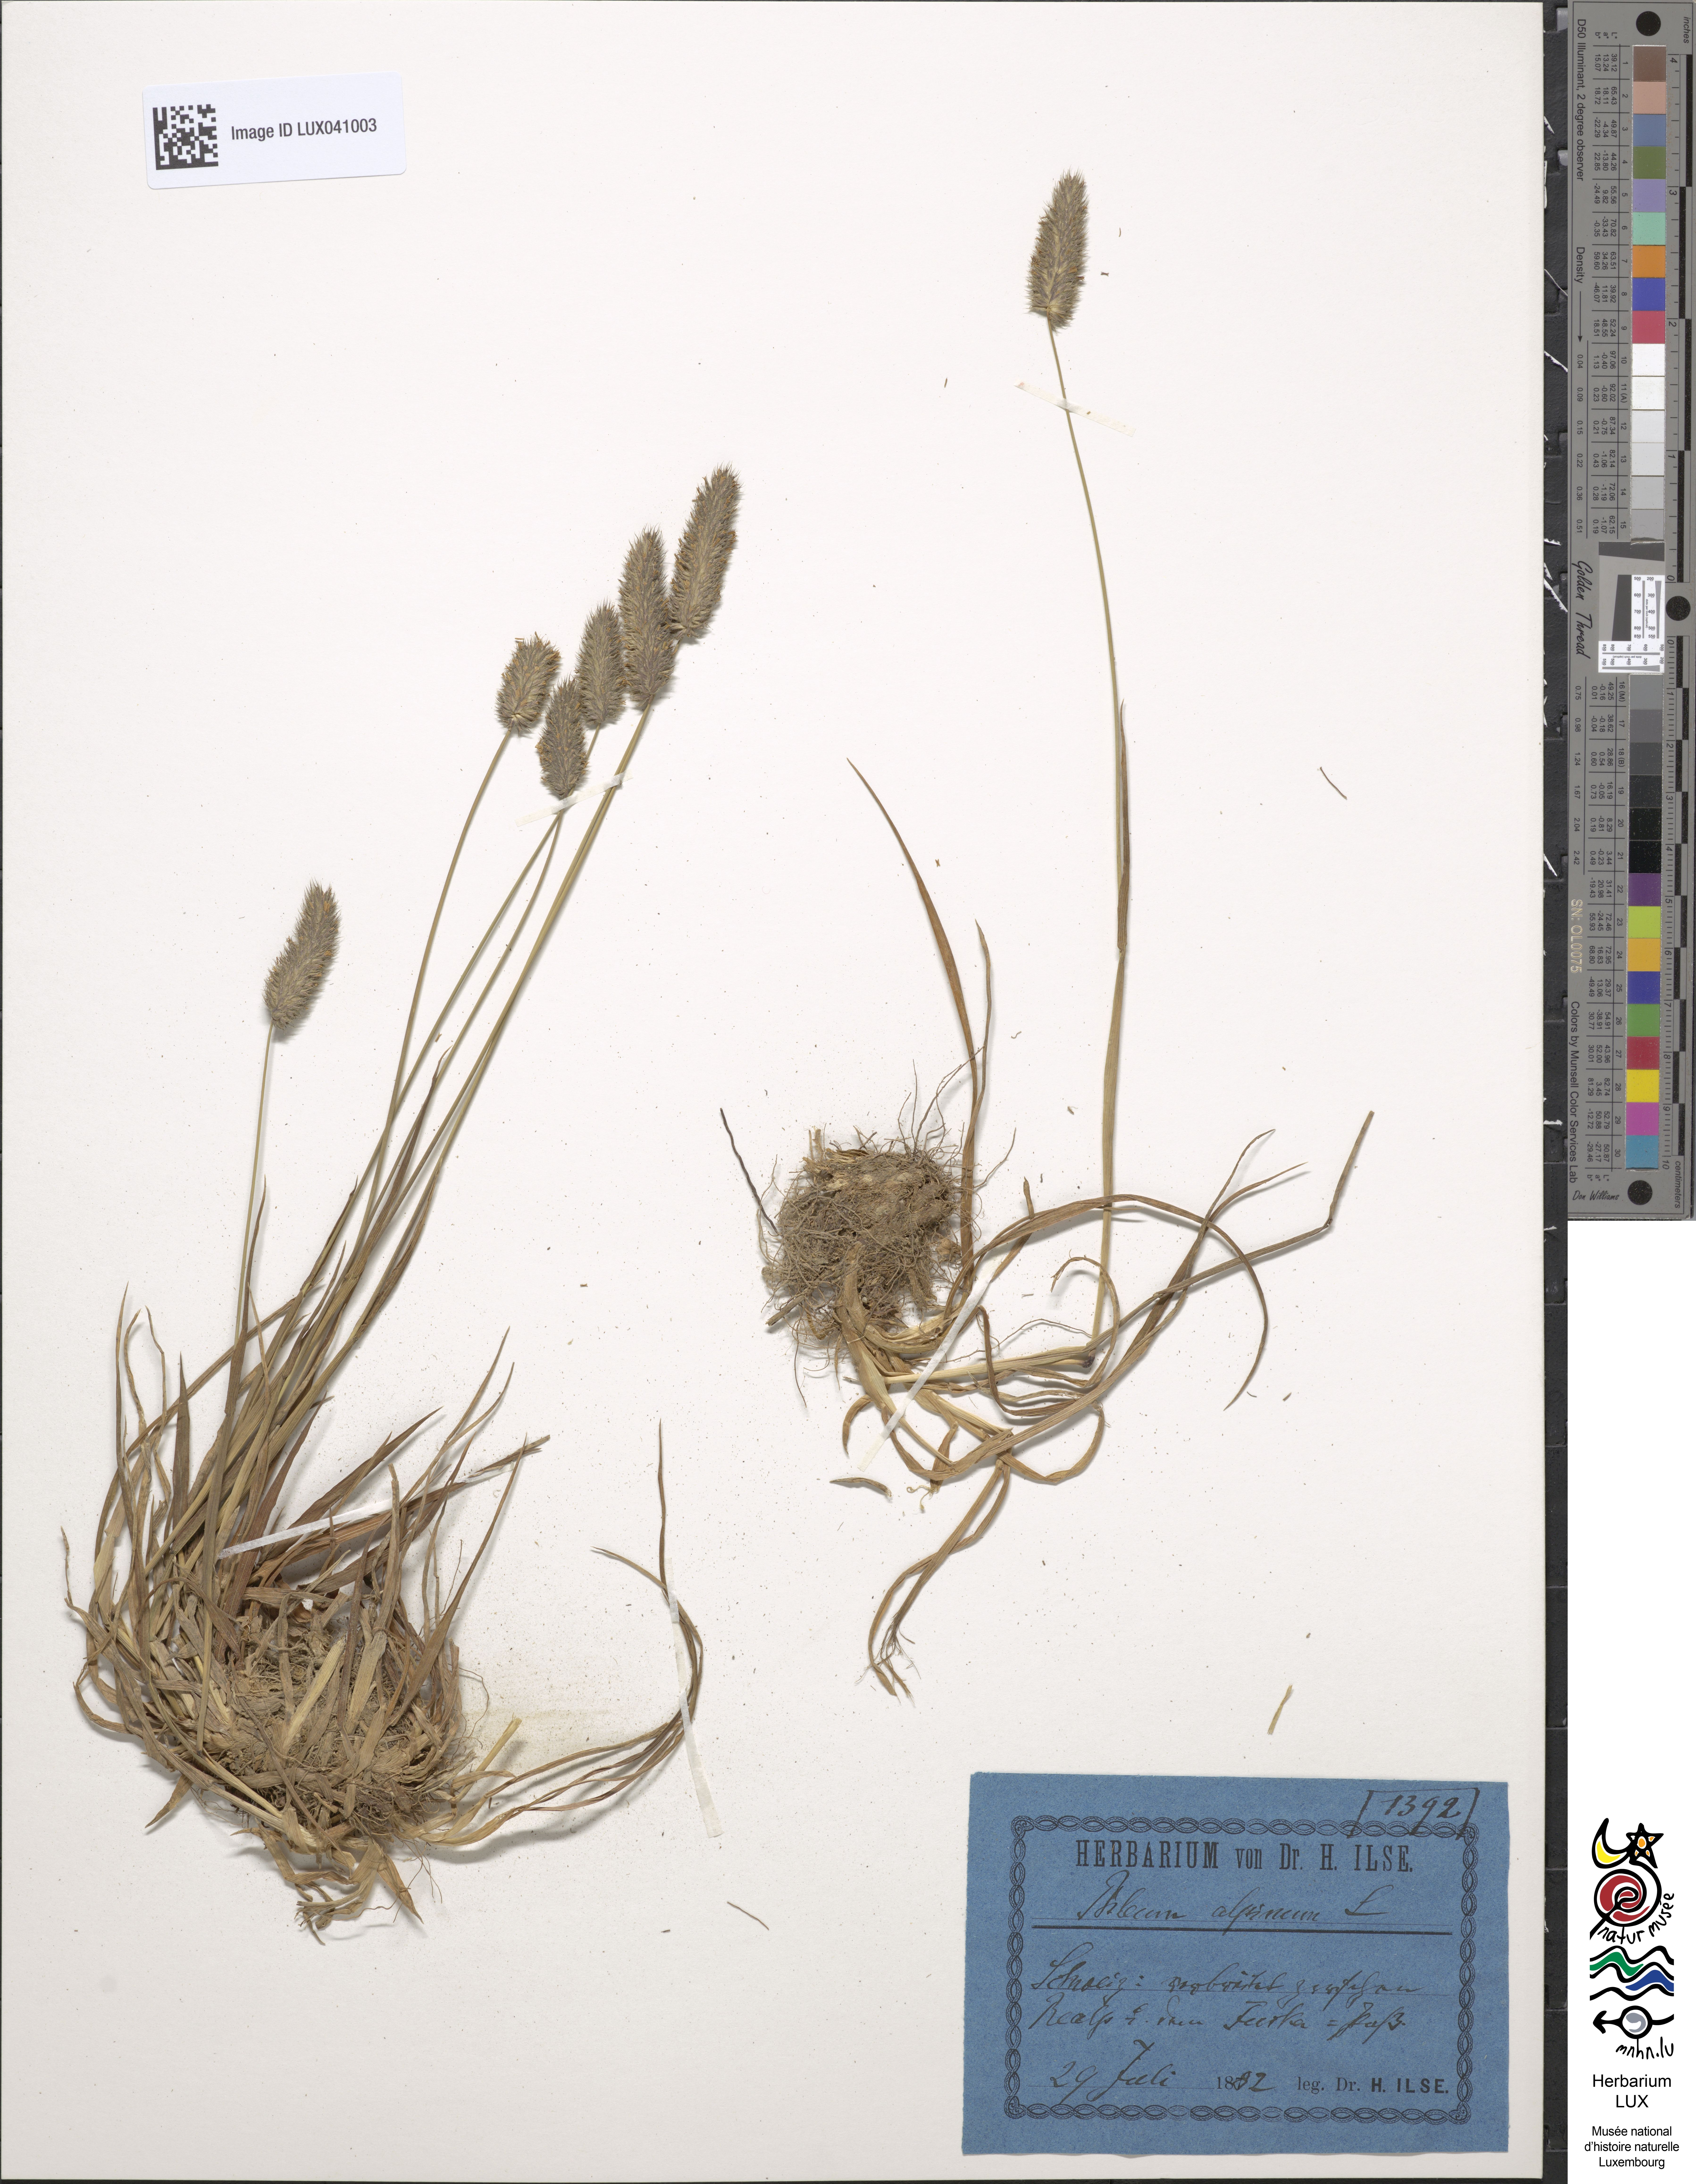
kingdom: Plantae
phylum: Tracheophyta
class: Liliopsida
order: Poales
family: Poaceae
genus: Phleum
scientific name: Phleum alpinum
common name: Alpine cat's-tail
